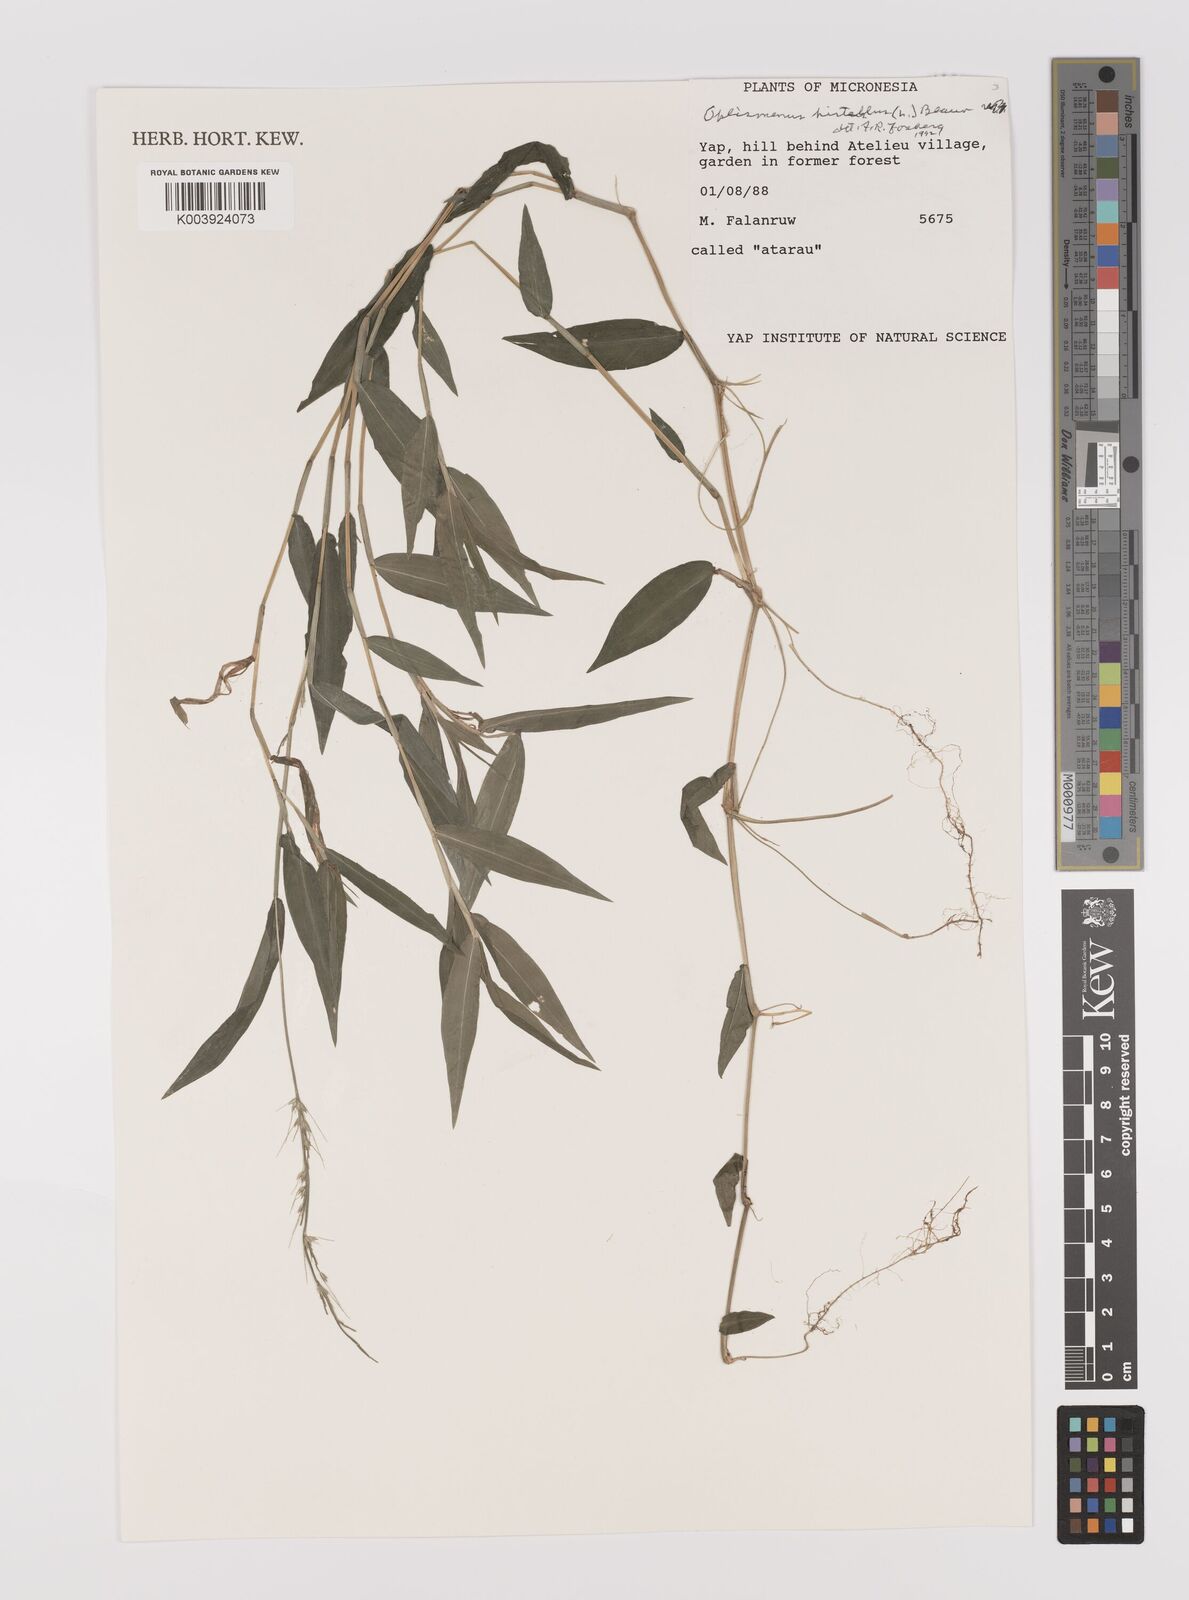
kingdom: Plantae
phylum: Tracheophyta
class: Liliopsida
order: Poales
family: Poaceae
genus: Oplismenus
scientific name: Oplismenus
